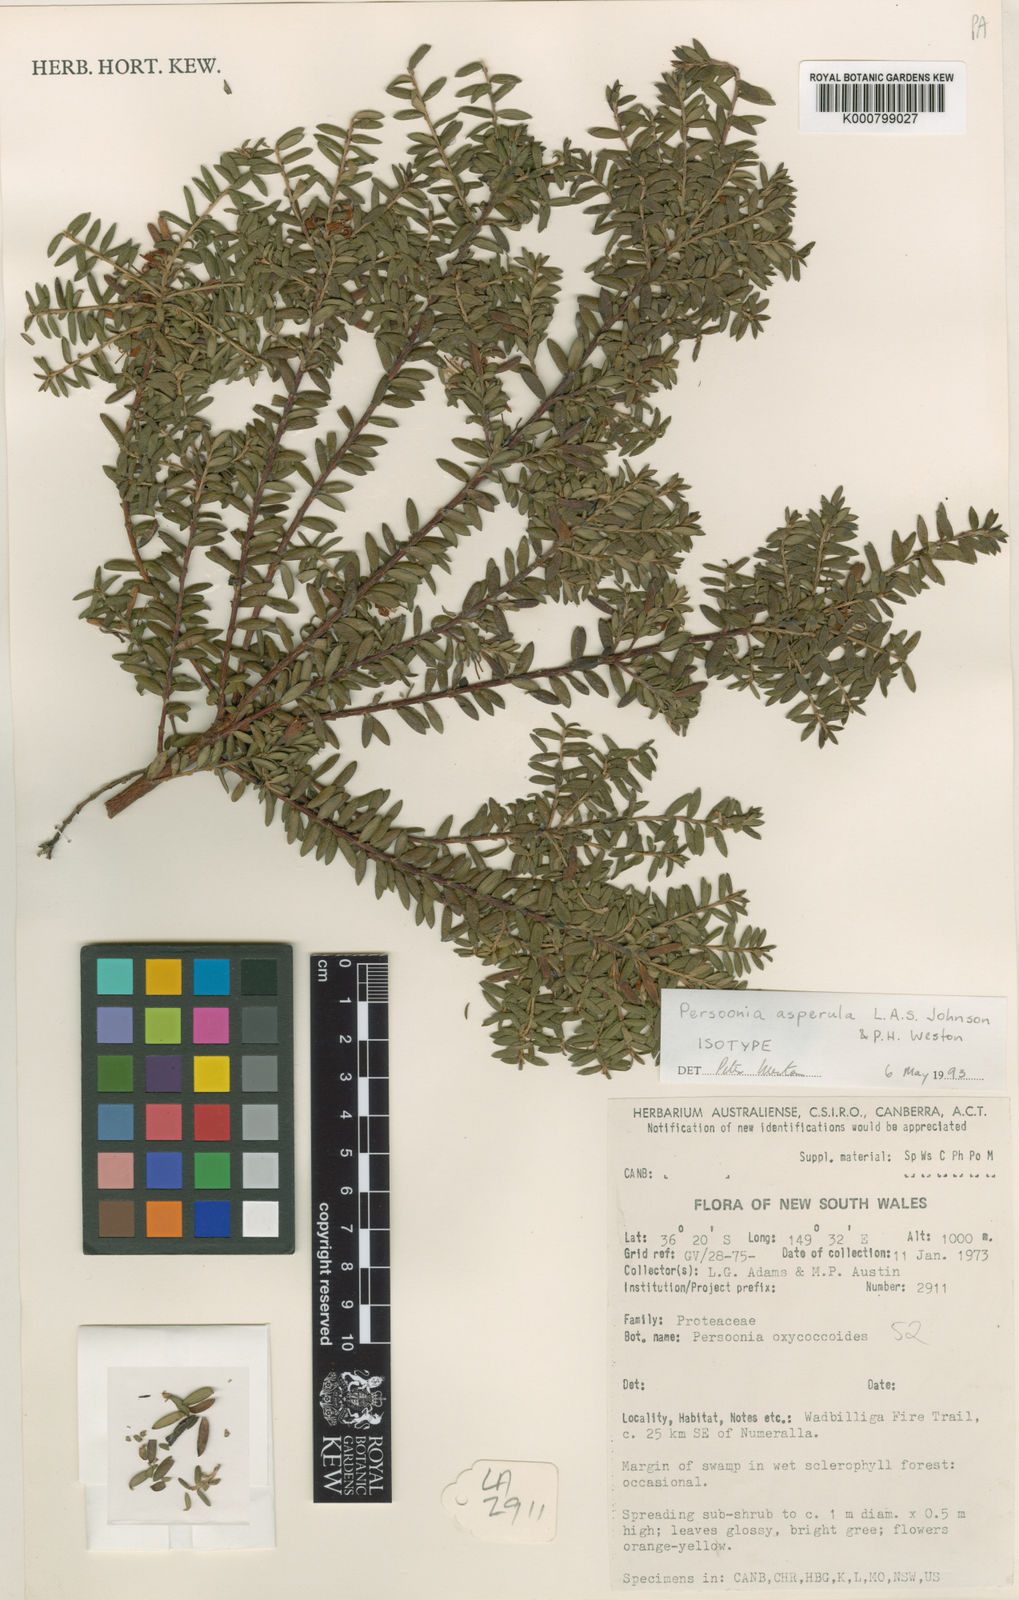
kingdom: Plantae
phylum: Tracheophyta
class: Magnoliopsida
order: Proteales
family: Proteaceae
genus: Persoonia
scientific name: Persoonia asperula
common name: Geebung
